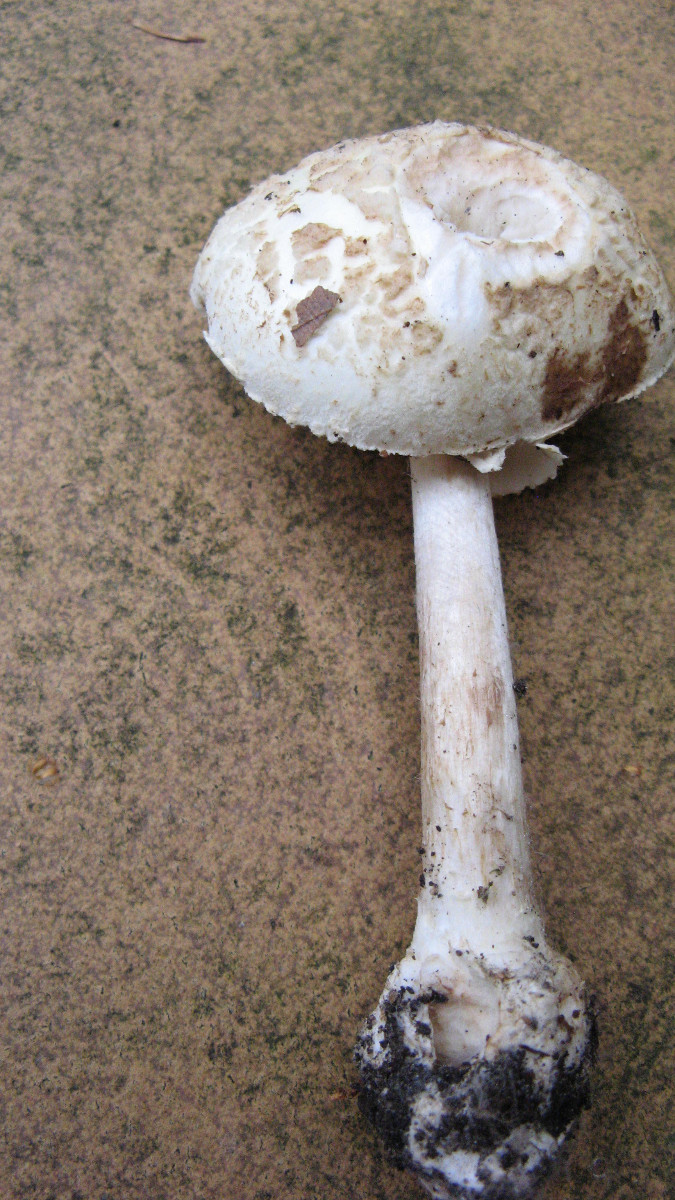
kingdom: Fungi
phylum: Basidiomycota
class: Agaricomycetes
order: Agaricales
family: Amanitaceae
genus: Amanita
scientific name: Amanita citrina
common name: False death-cap
